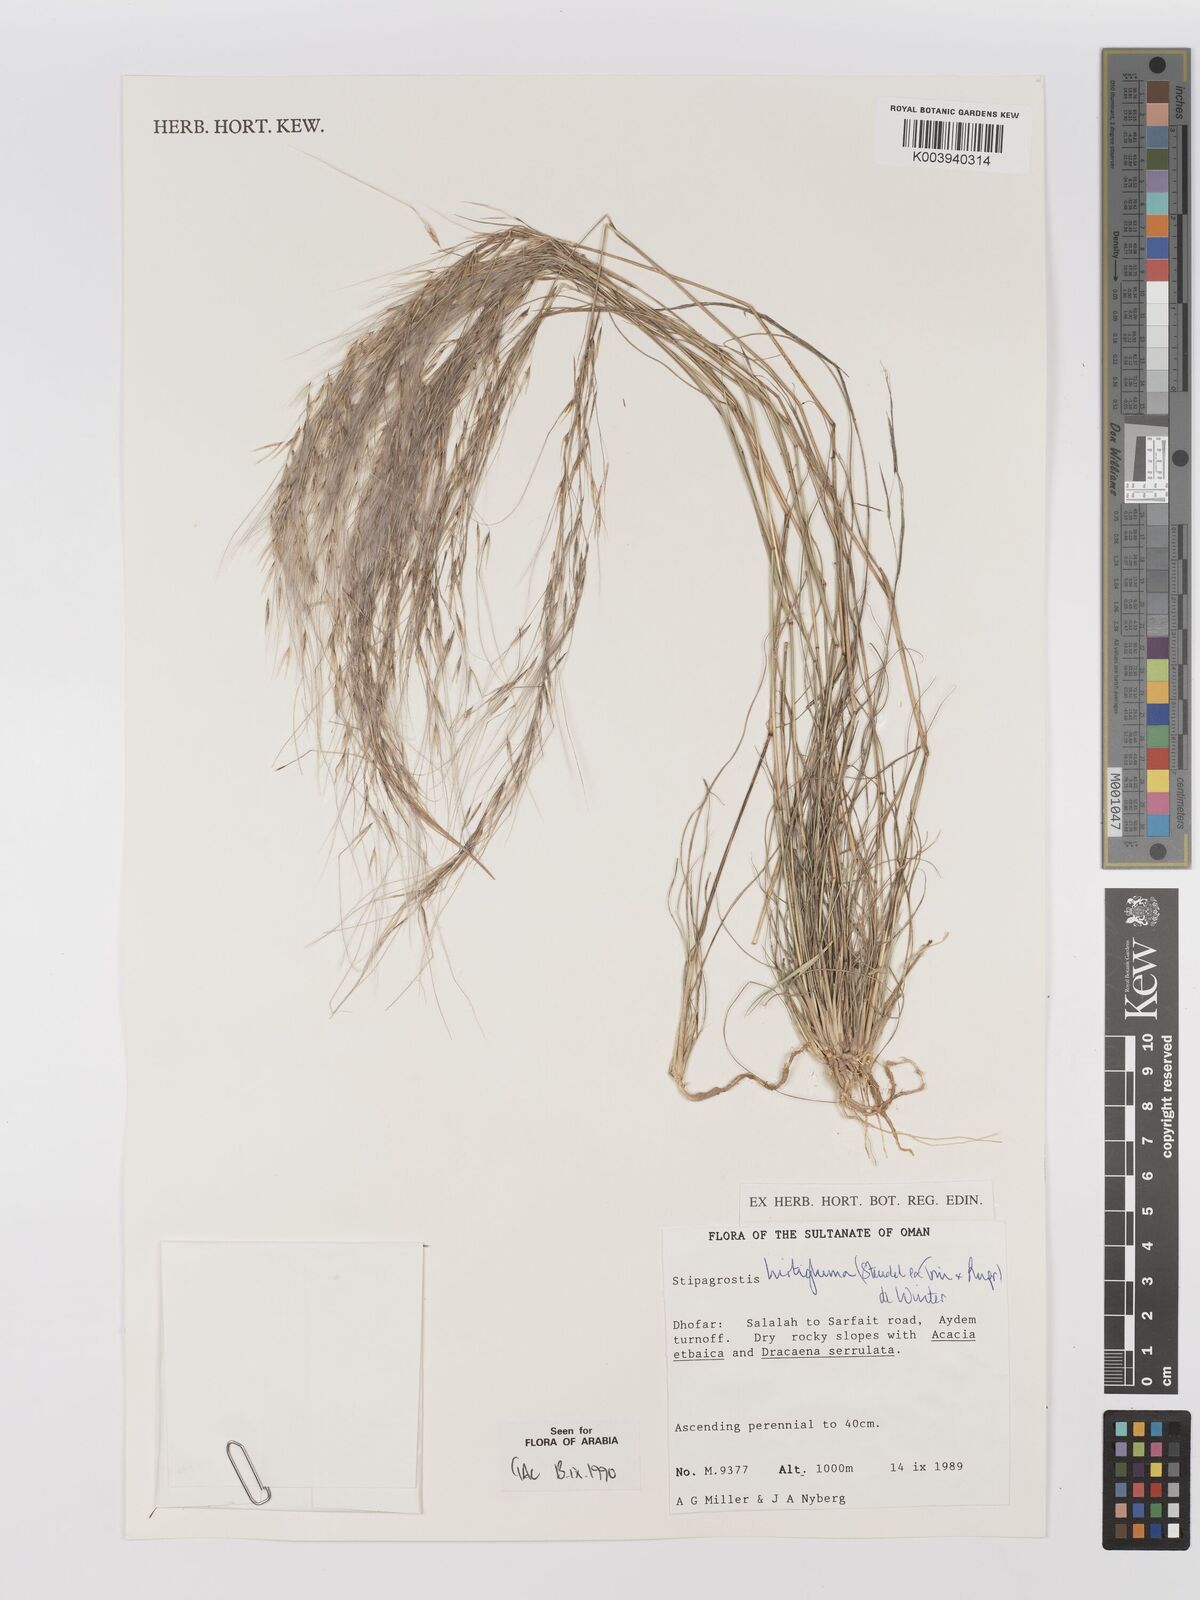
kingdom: Plantae
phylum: Tracheophyta
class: Liliopsida
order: Poales
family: Poaceae
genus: Stipagrostis
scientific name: Stipagrostis hirtigluma
